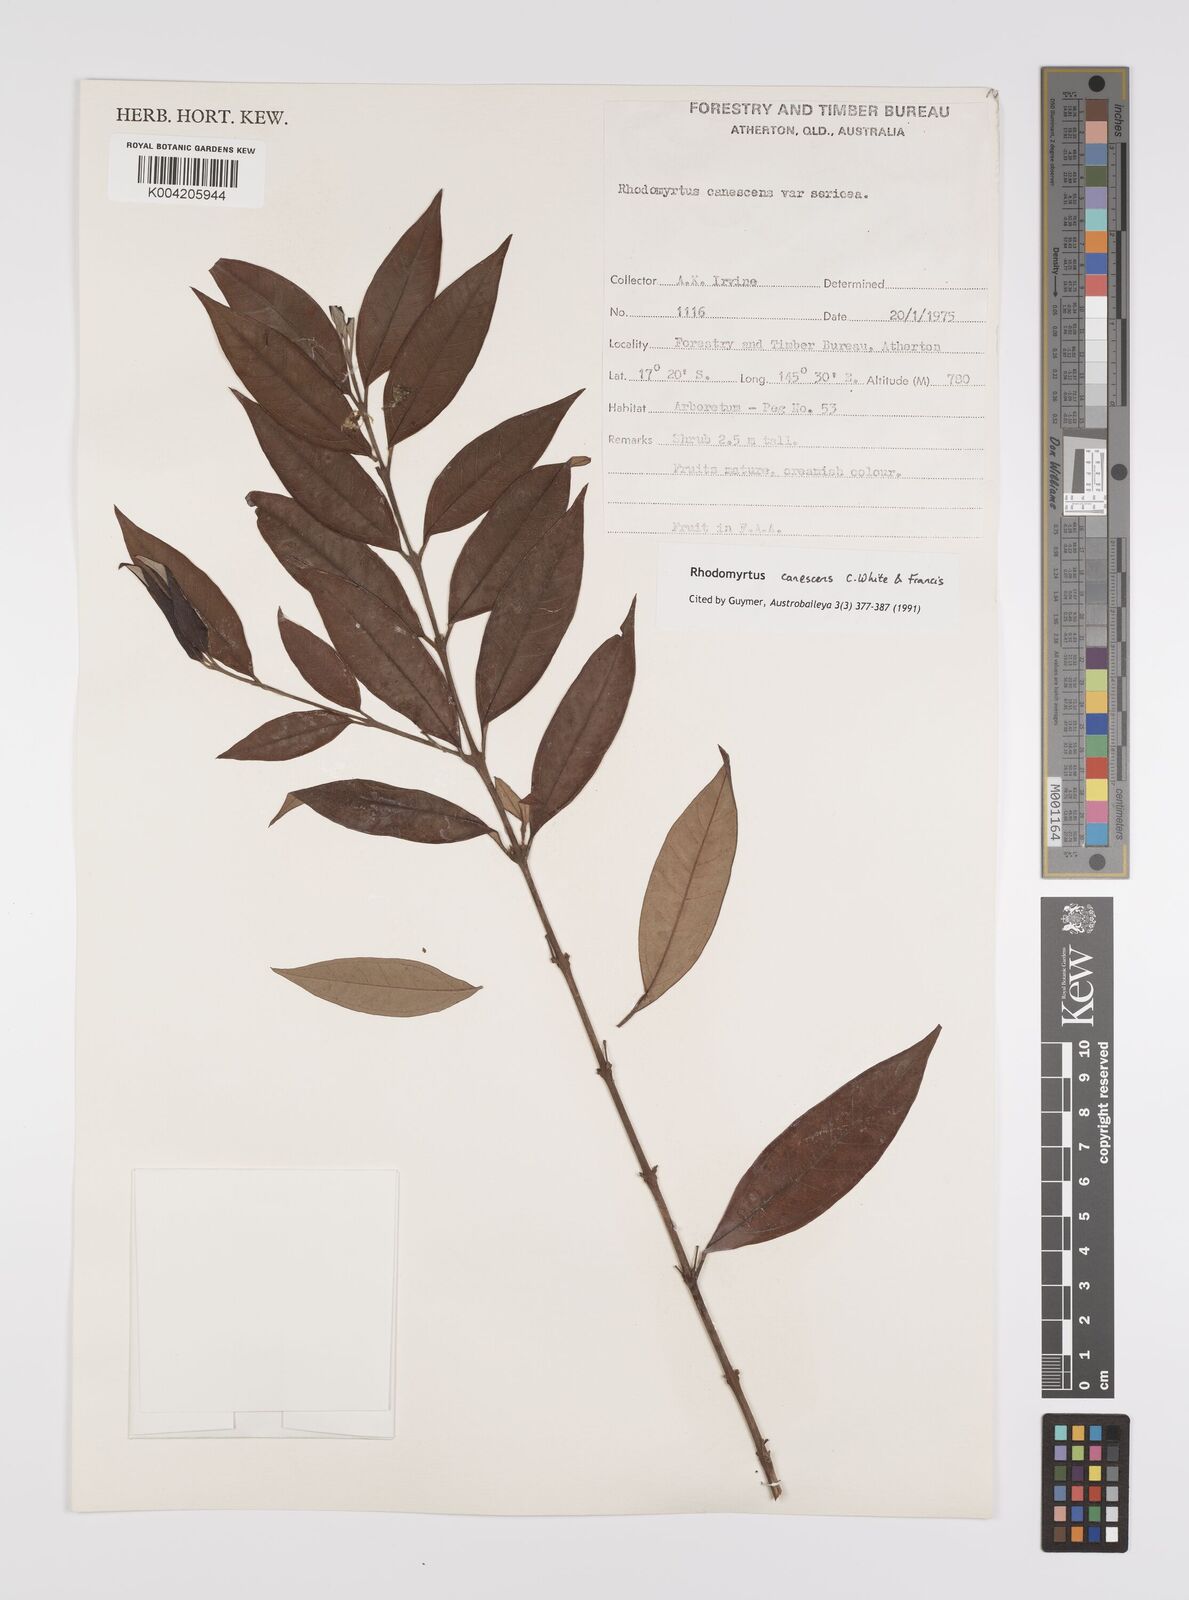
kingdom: Plantae
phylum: Tracheophyta
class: Magnoliopsida
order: Myrtales
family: Myrtaceae
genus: Rhodomyrtus
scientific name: Rhodomyrtus trineura
